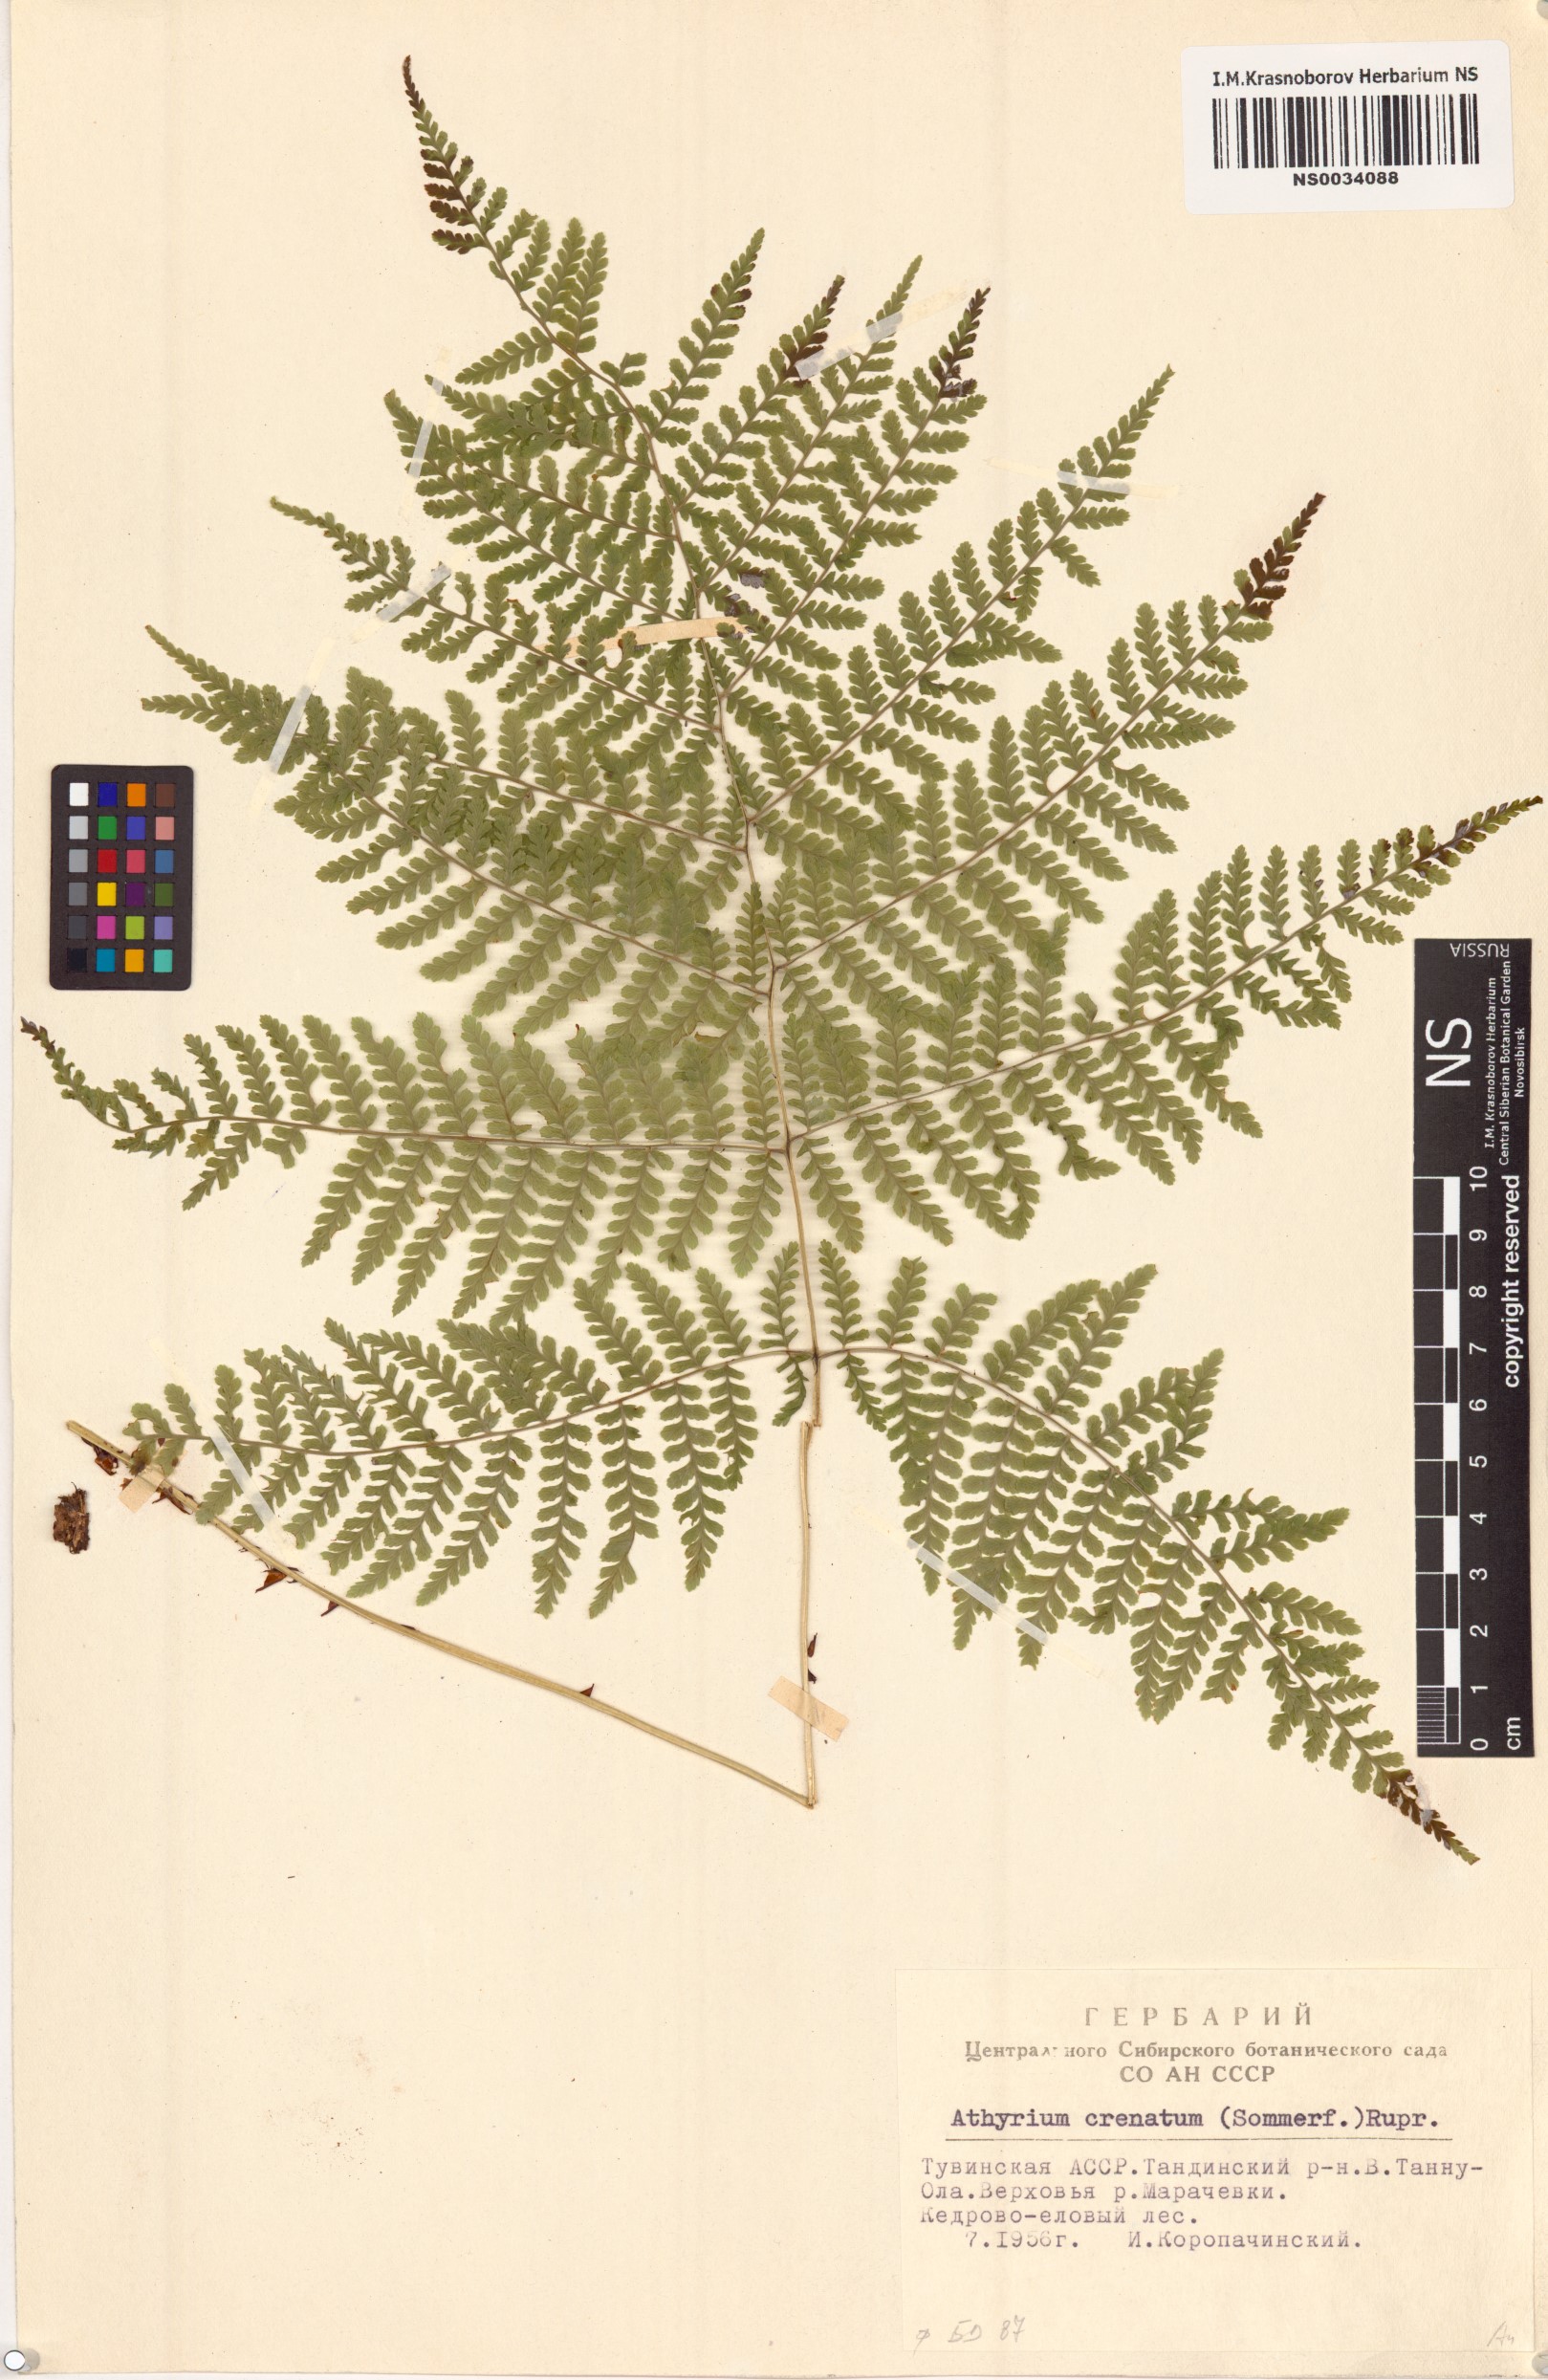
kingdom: Plantae
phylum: Tracheophyta
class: Polypodiopsida
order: Polypodiales
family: Athyriaceae
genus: Diplazium
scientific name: Diplazium sibiricum
